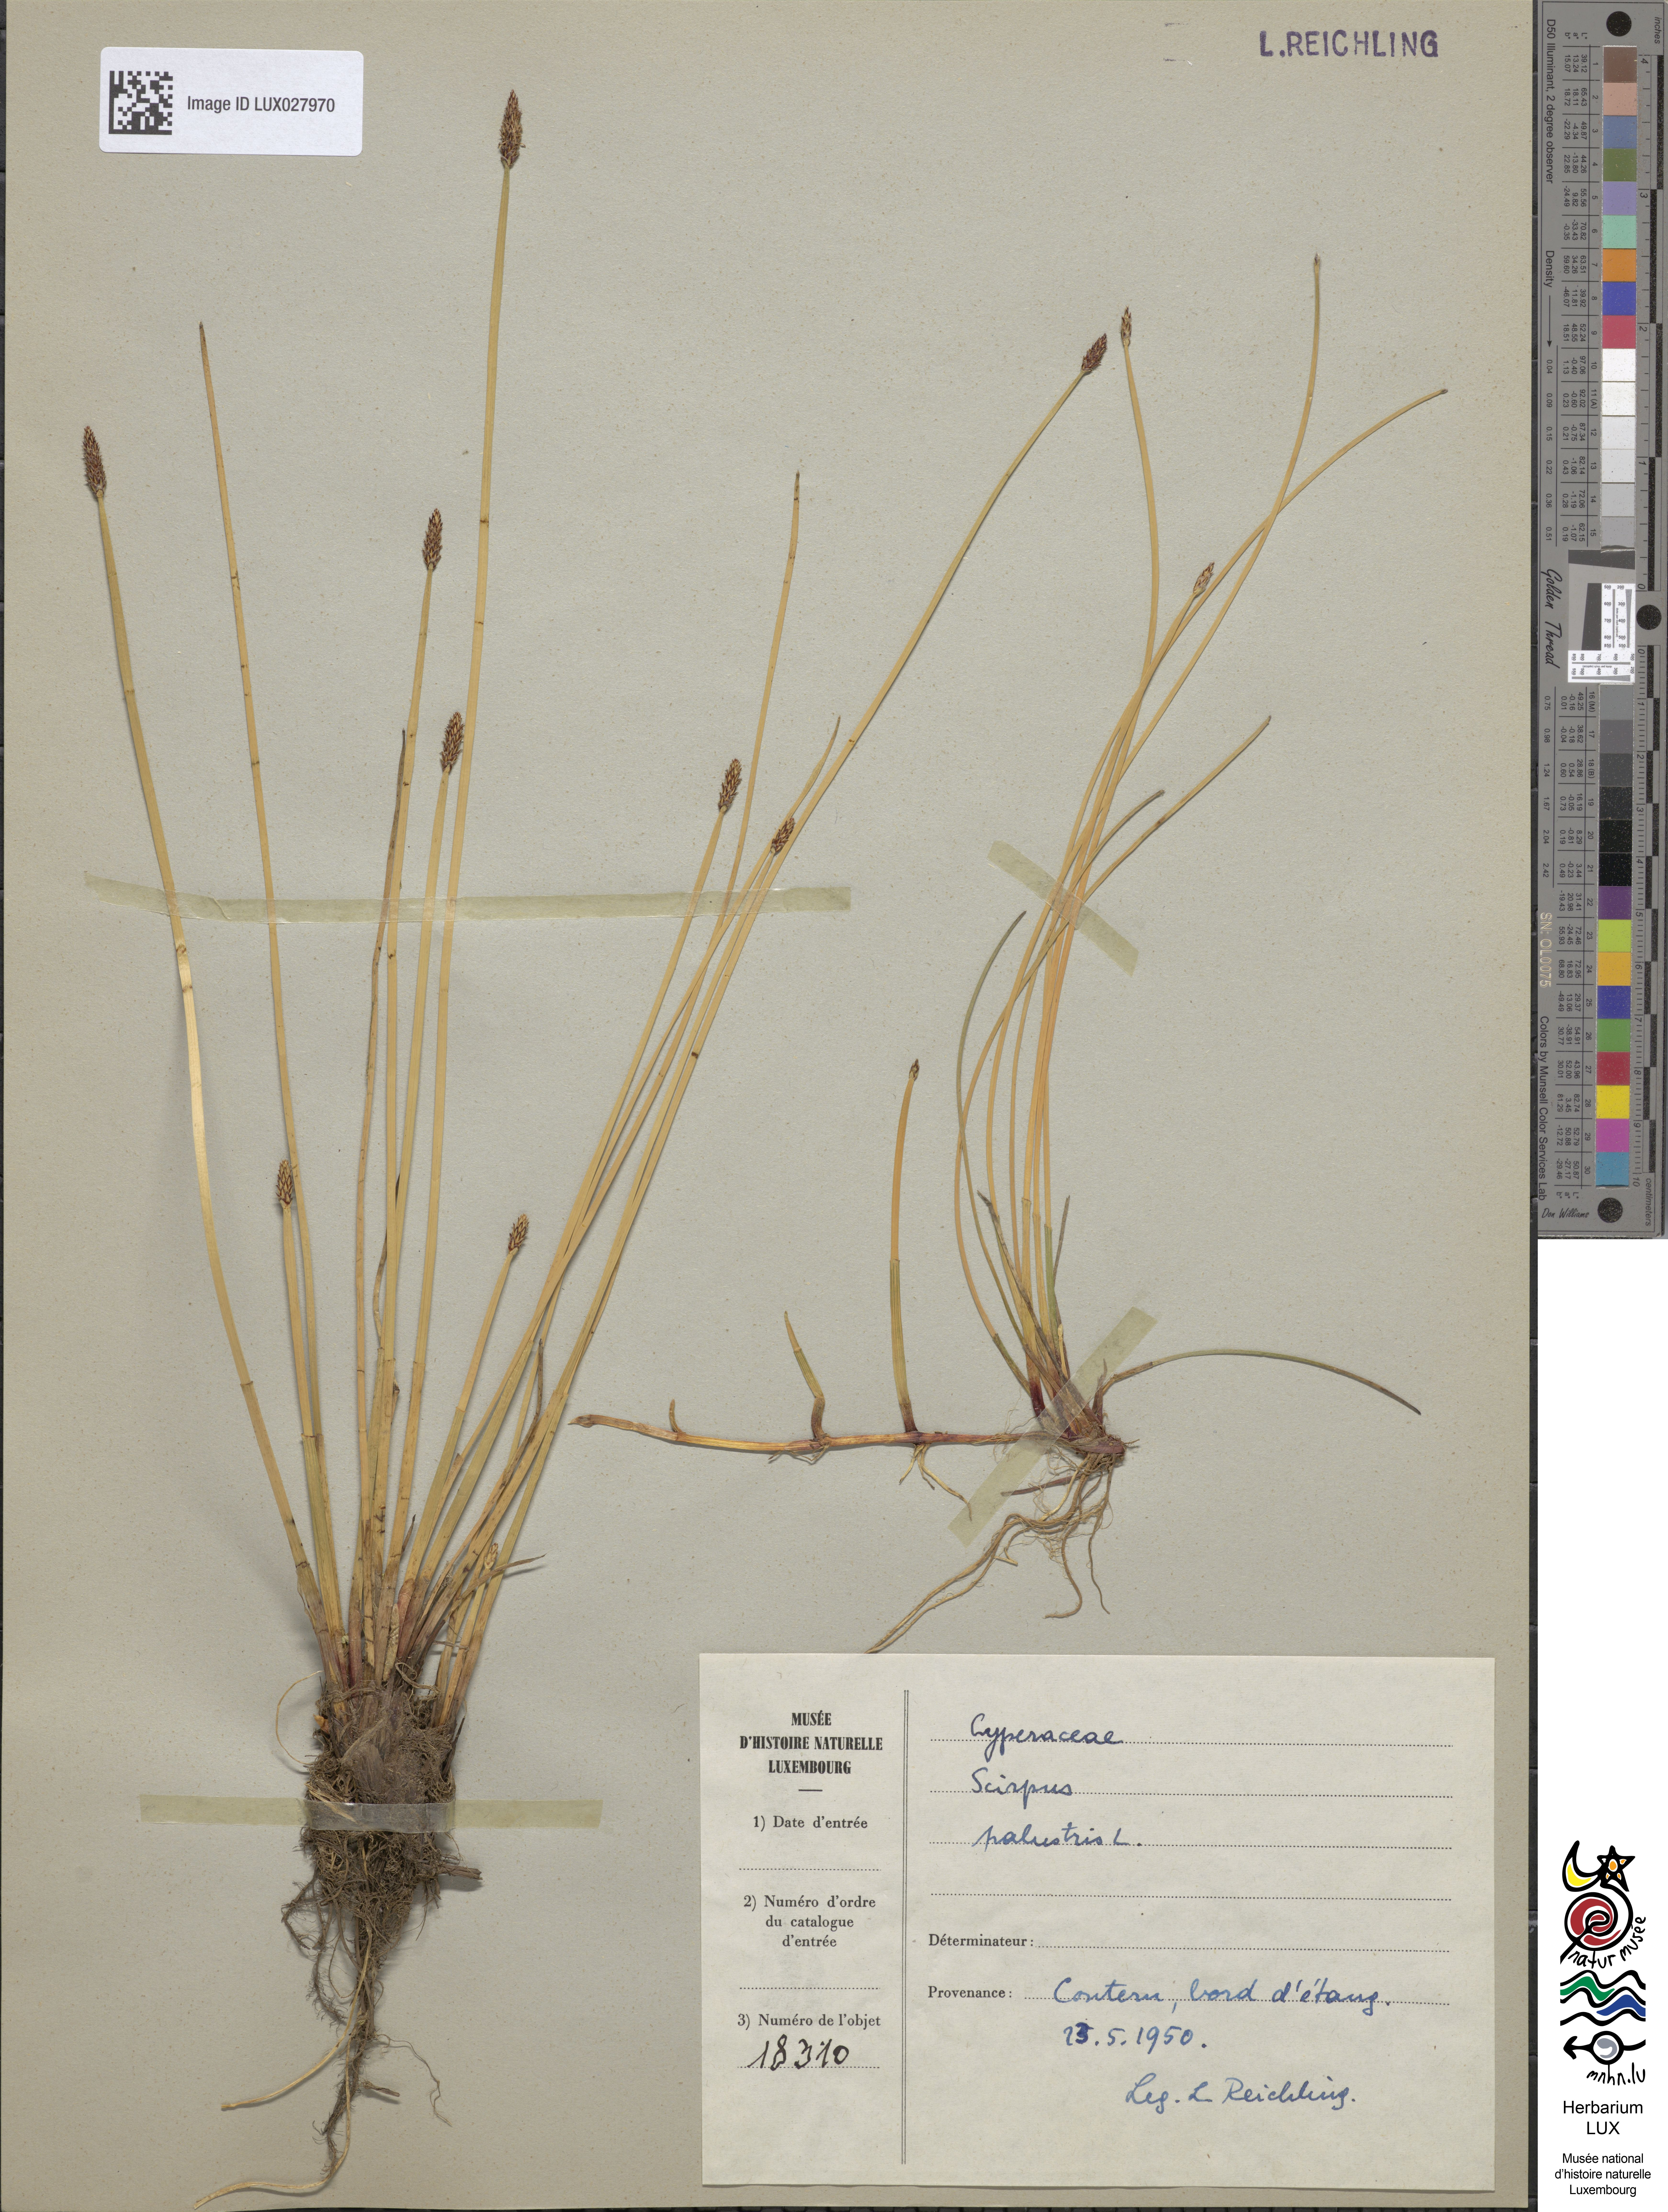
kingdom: Plantae
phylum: Tracheophyta
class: Liliopsida
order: Poales
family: Cyperaceae
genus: Eleocharis
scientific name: Eleocharis uniglumis
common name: Slender spike-rush
